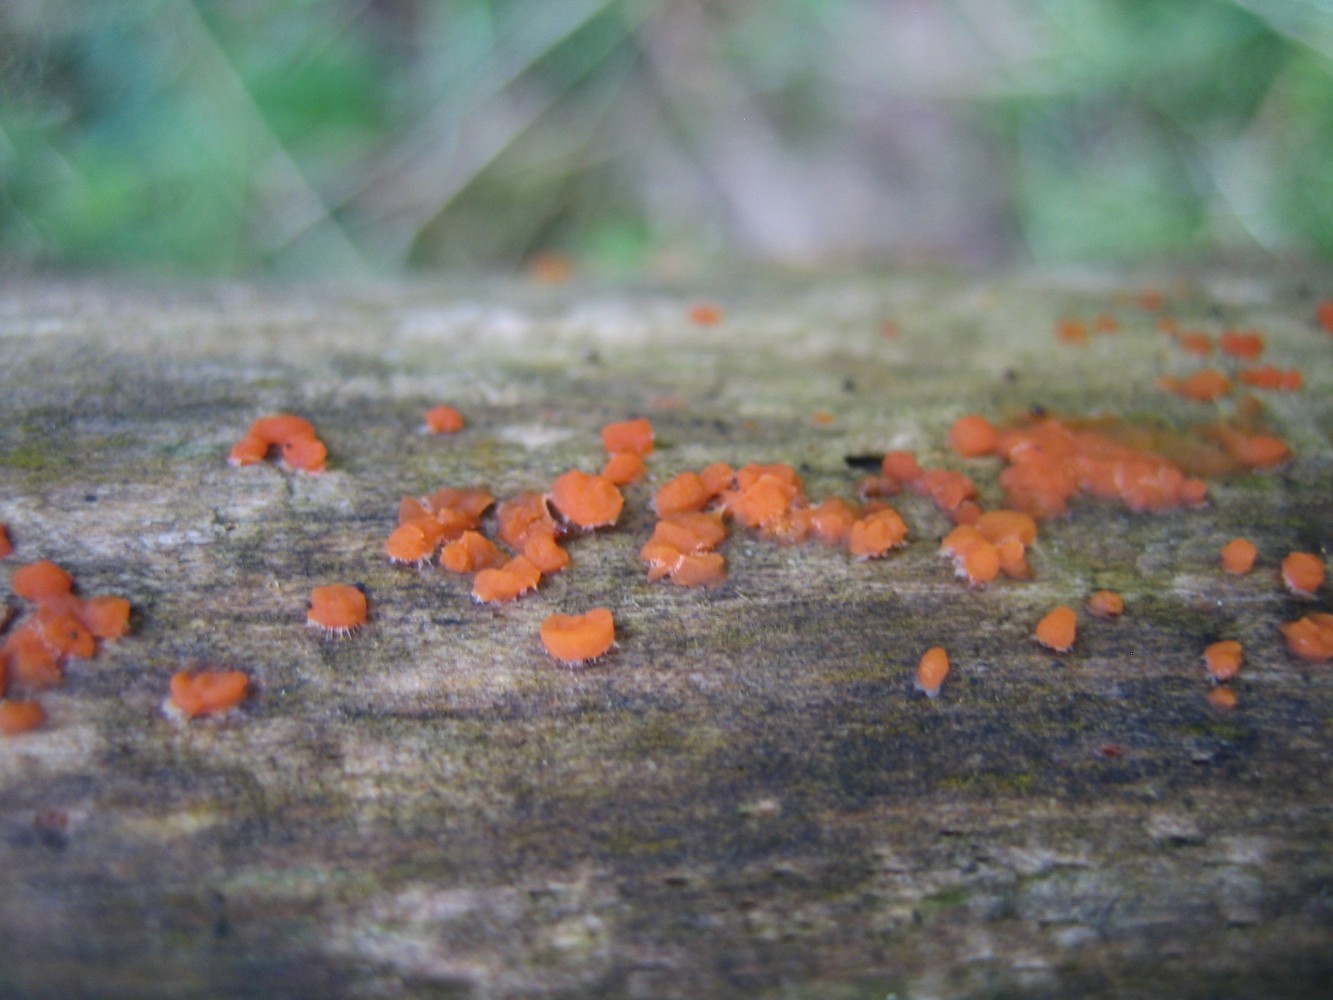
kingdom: Fungi
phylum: Basidiomycota
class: Dacrymycetes
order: Dacrymycetales
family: Dacrymycetaceae
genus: Dacrymyces
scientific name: Dacrymyces stillatus
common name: almindelig tåresvamp
